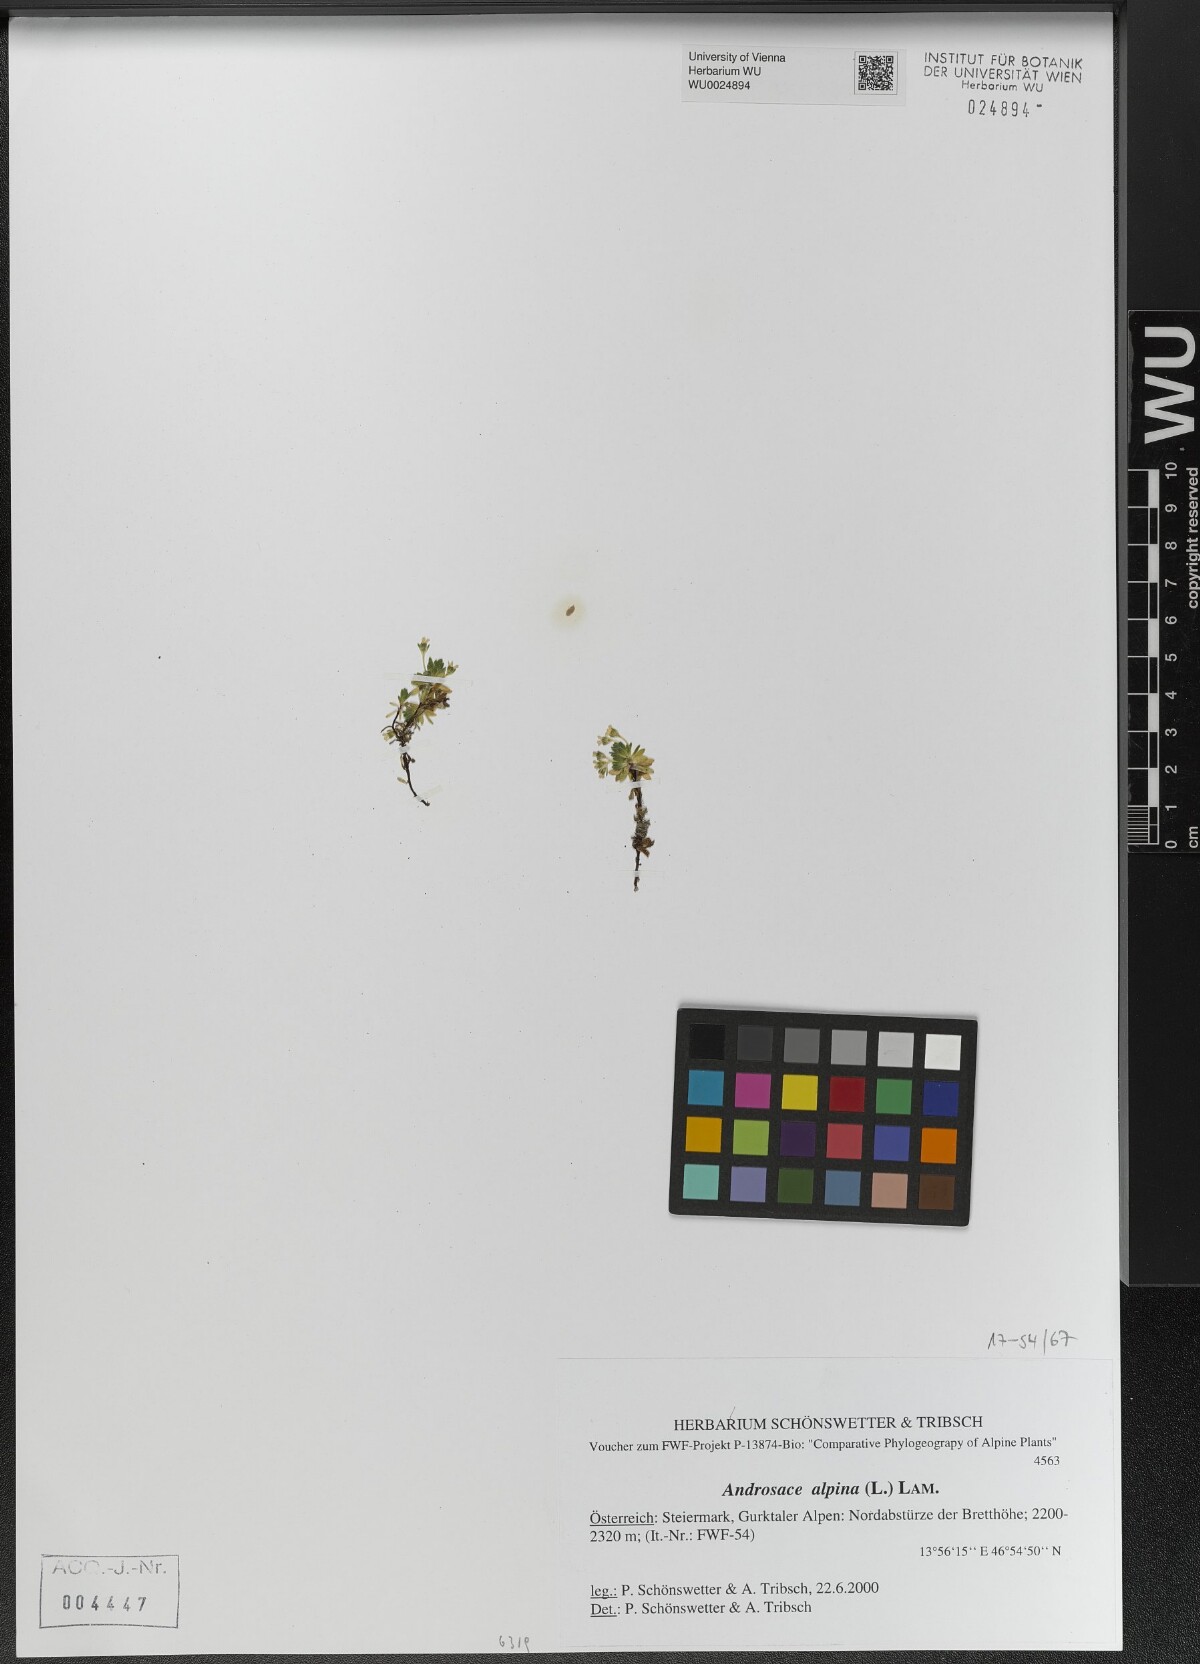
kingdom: Plantae
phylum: Tracheophyta
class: Magnoliopsida
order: Ericales
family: Primulaceae
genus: Androsace
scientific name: Androsace alpina
